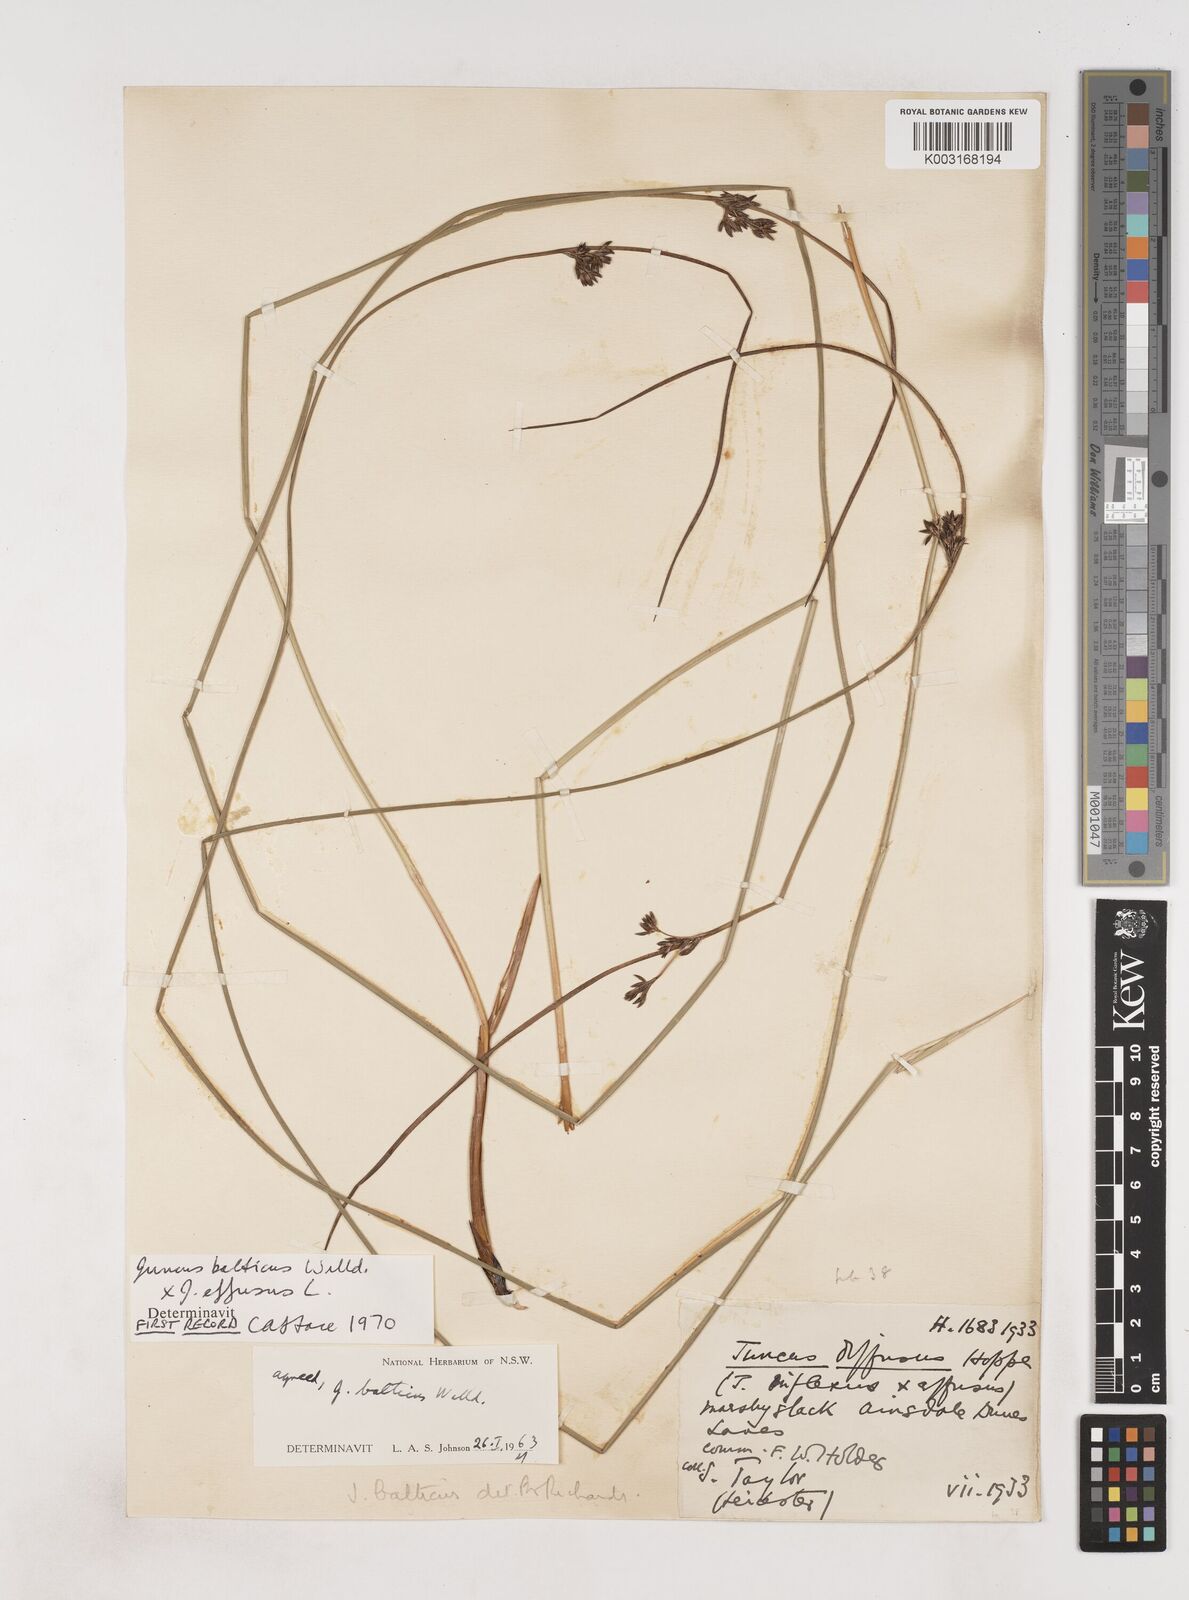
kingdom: Plantae
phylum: Tracheophyta
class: Liliopsida
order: Poales
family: Juncaceae
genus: Juncus
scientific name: Juncus balticus
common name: Baltic rush
